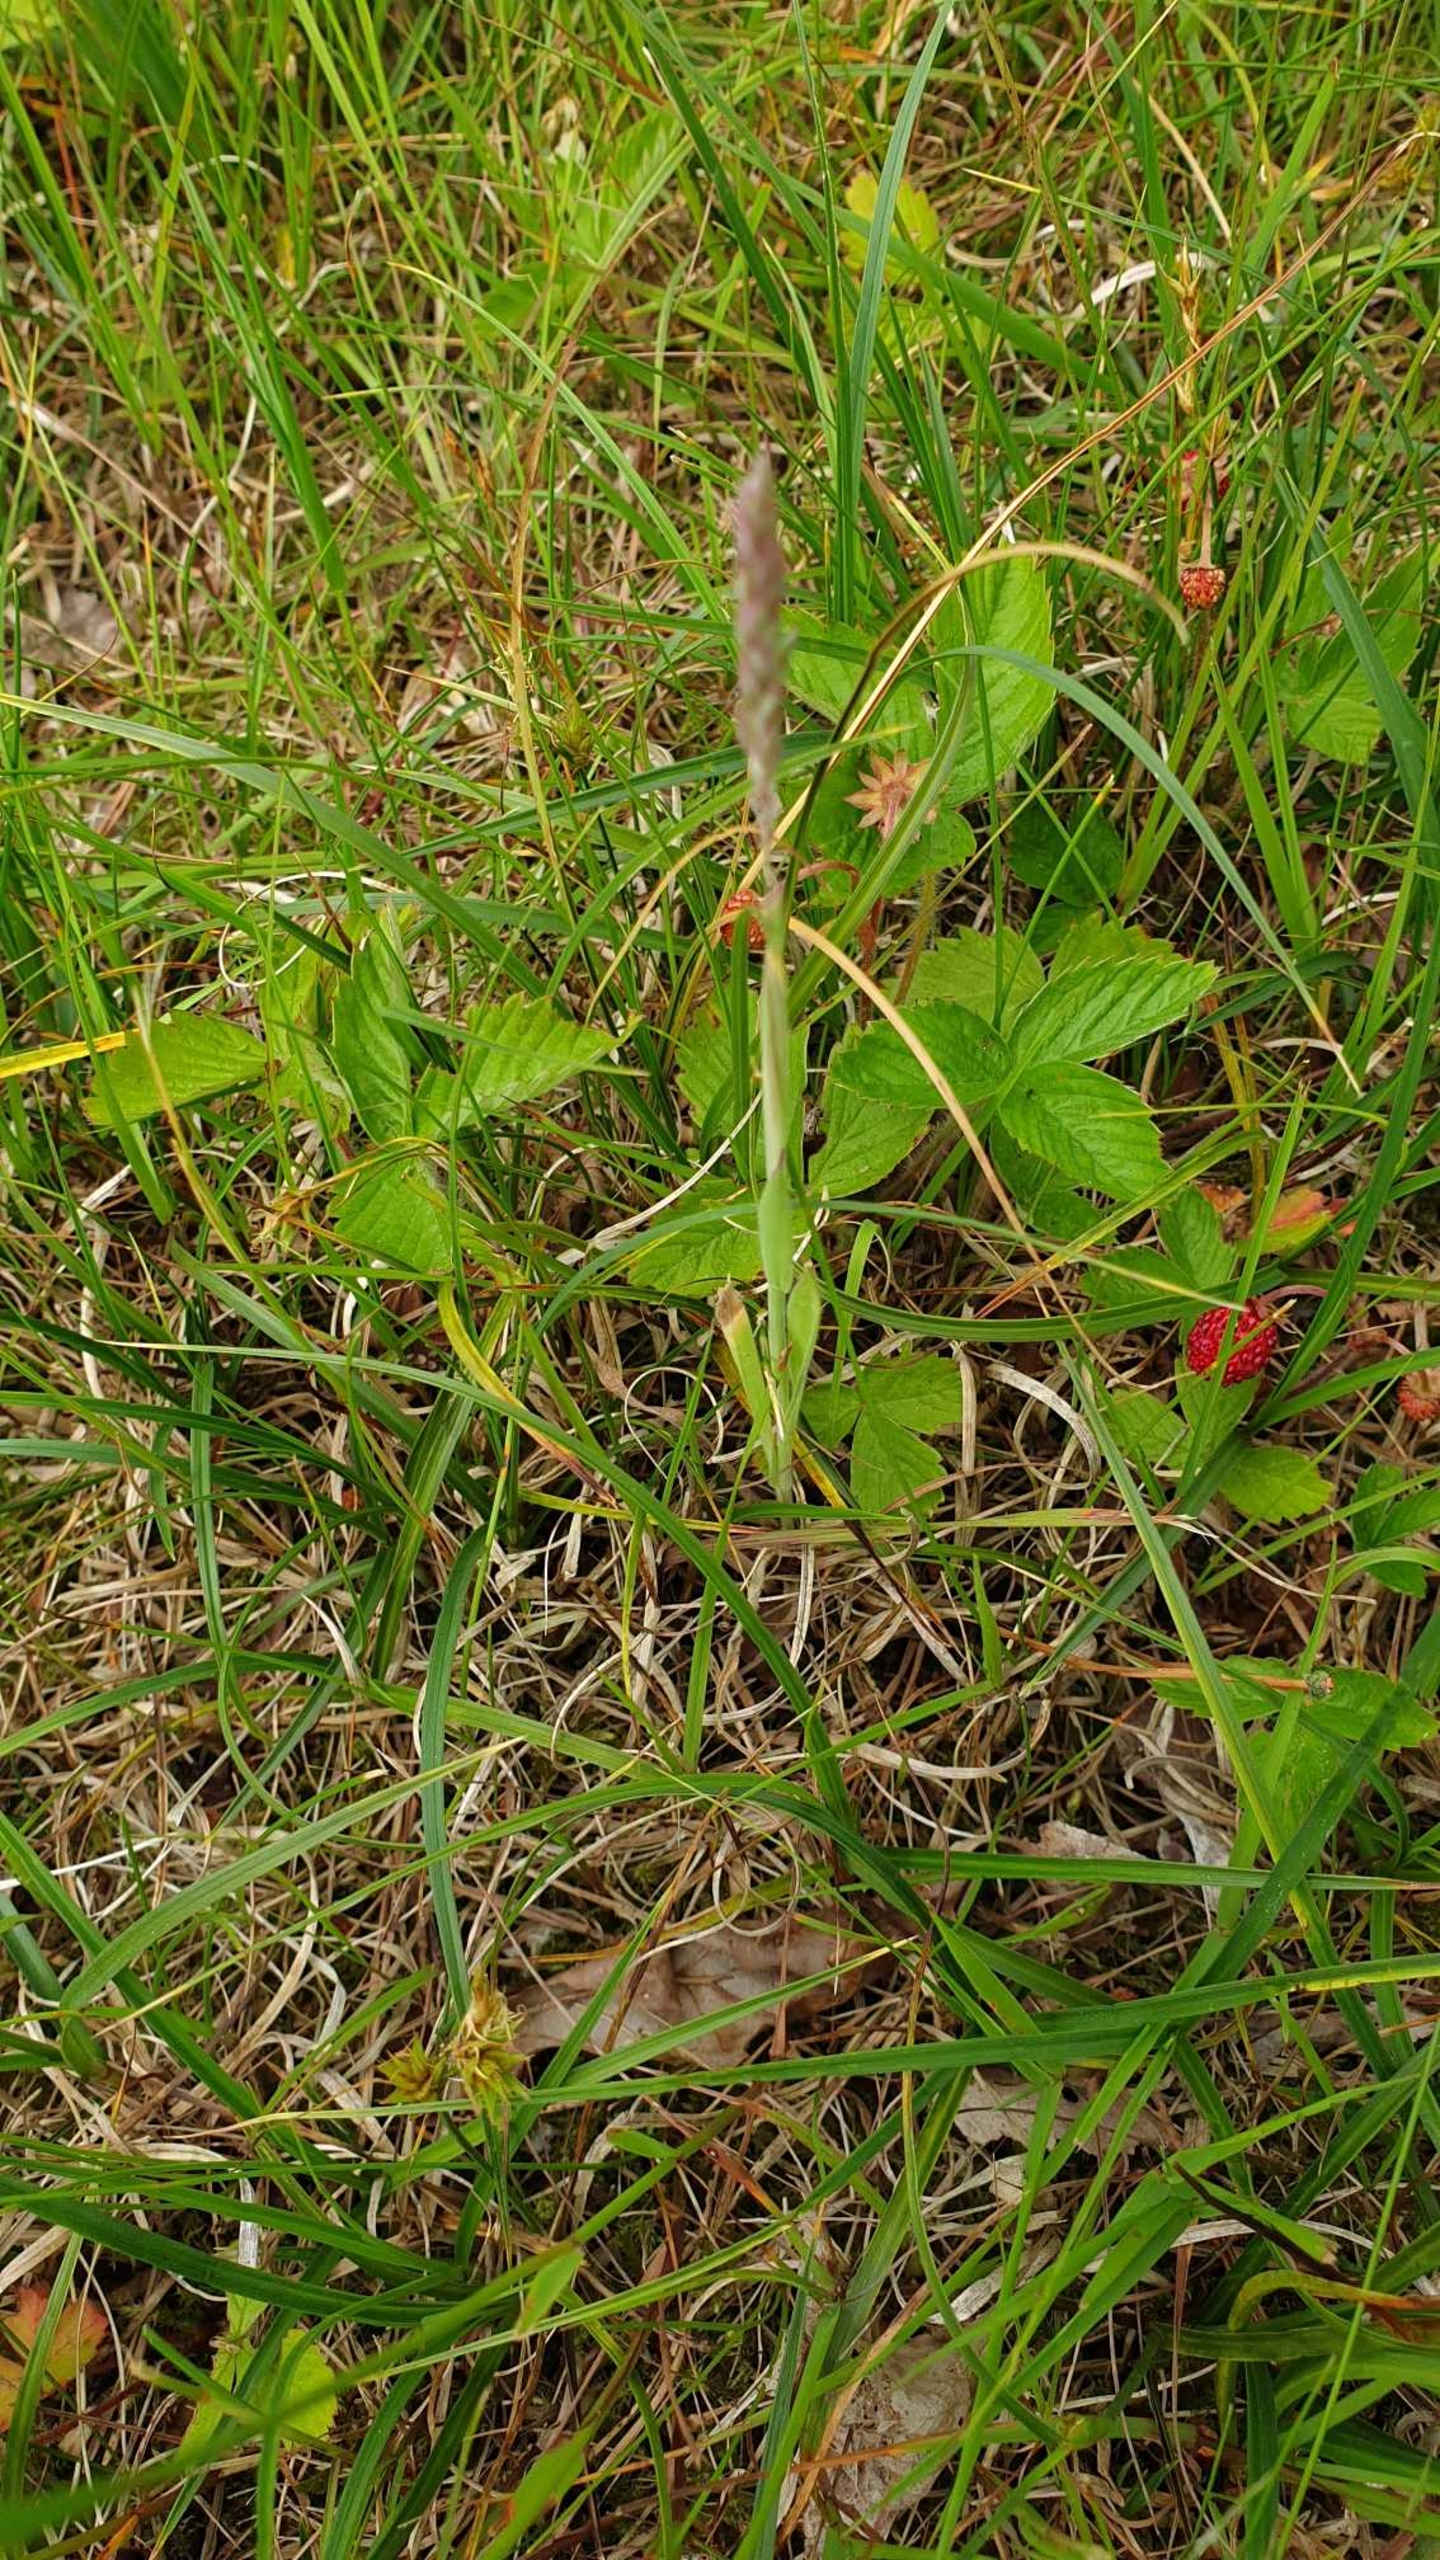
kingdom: Plantae
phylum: Tracheophyta
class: Magnoliopsida
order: Rosales
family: Rosaceae
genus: Fragaria
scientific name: Fragaria vesca
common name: Skov-jordbær
